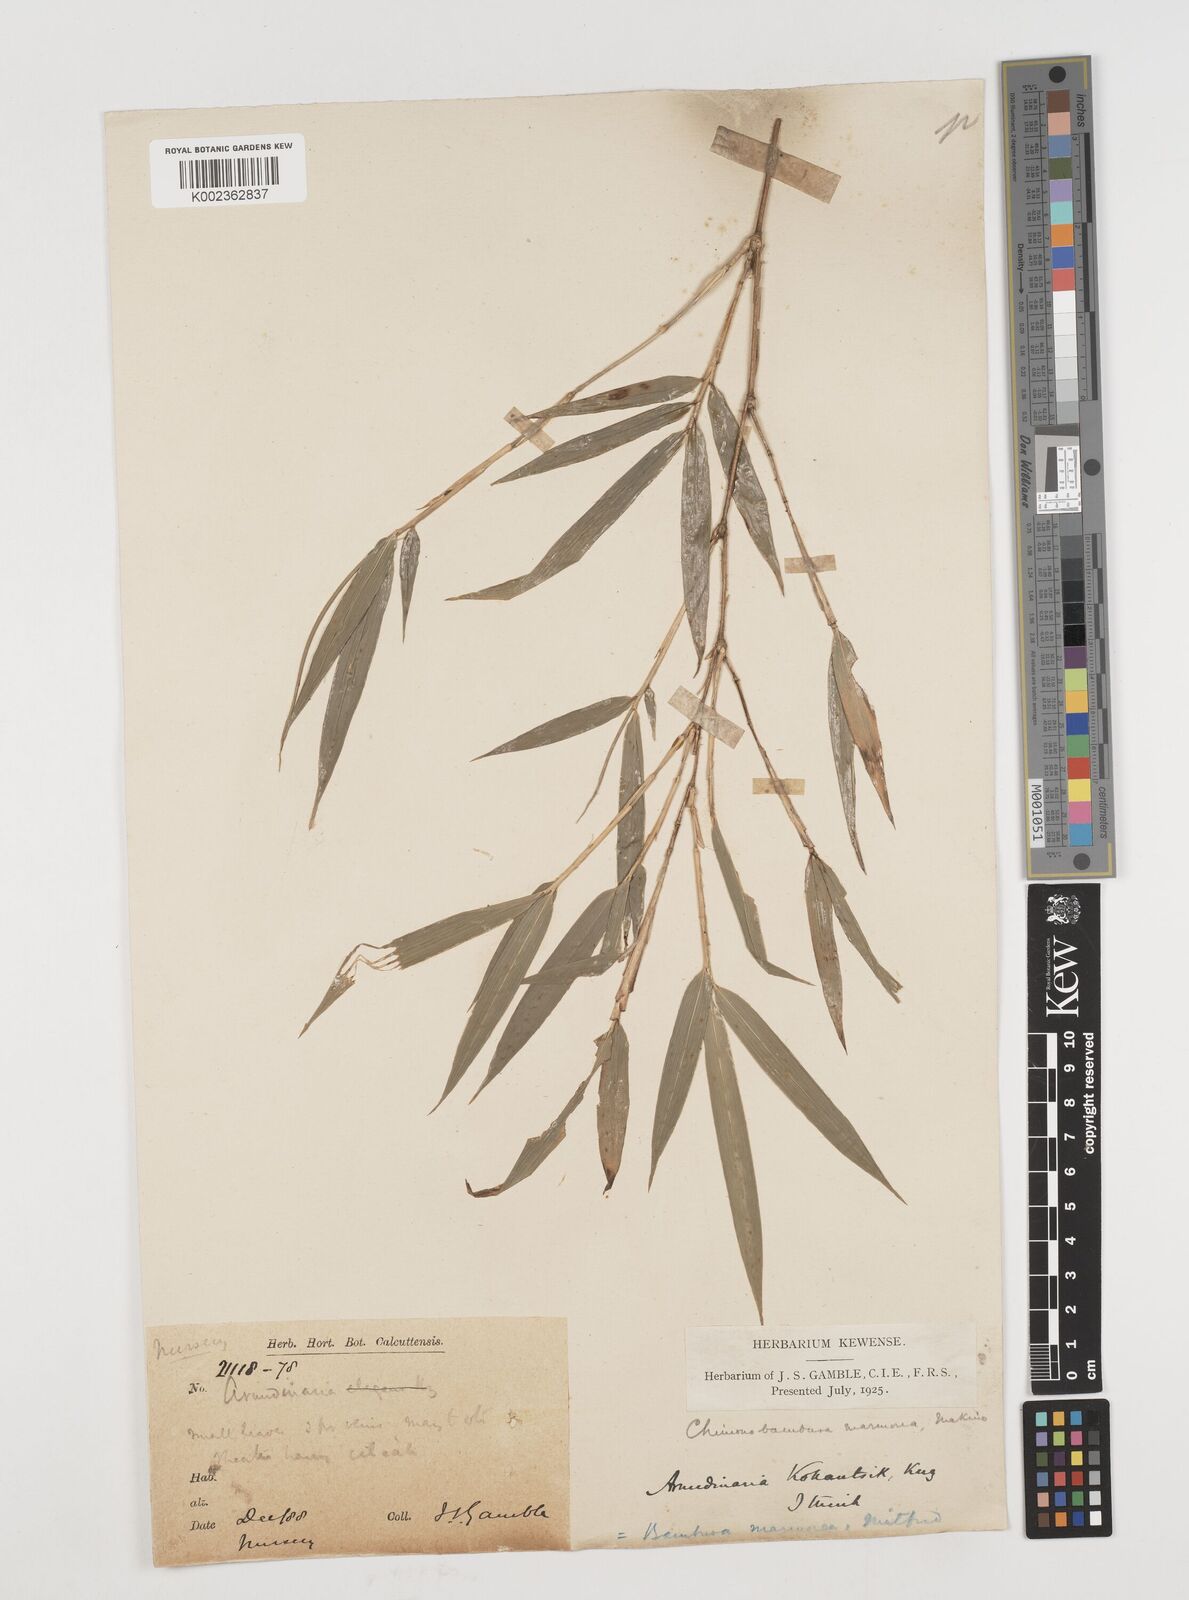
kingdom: Plantae
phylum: Tracheophyta
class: Liliopsida
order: Poales
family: Poaceae
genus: Chimonobambusa
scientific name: Chimonobambusa marmorea
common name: Marbled bamboo
